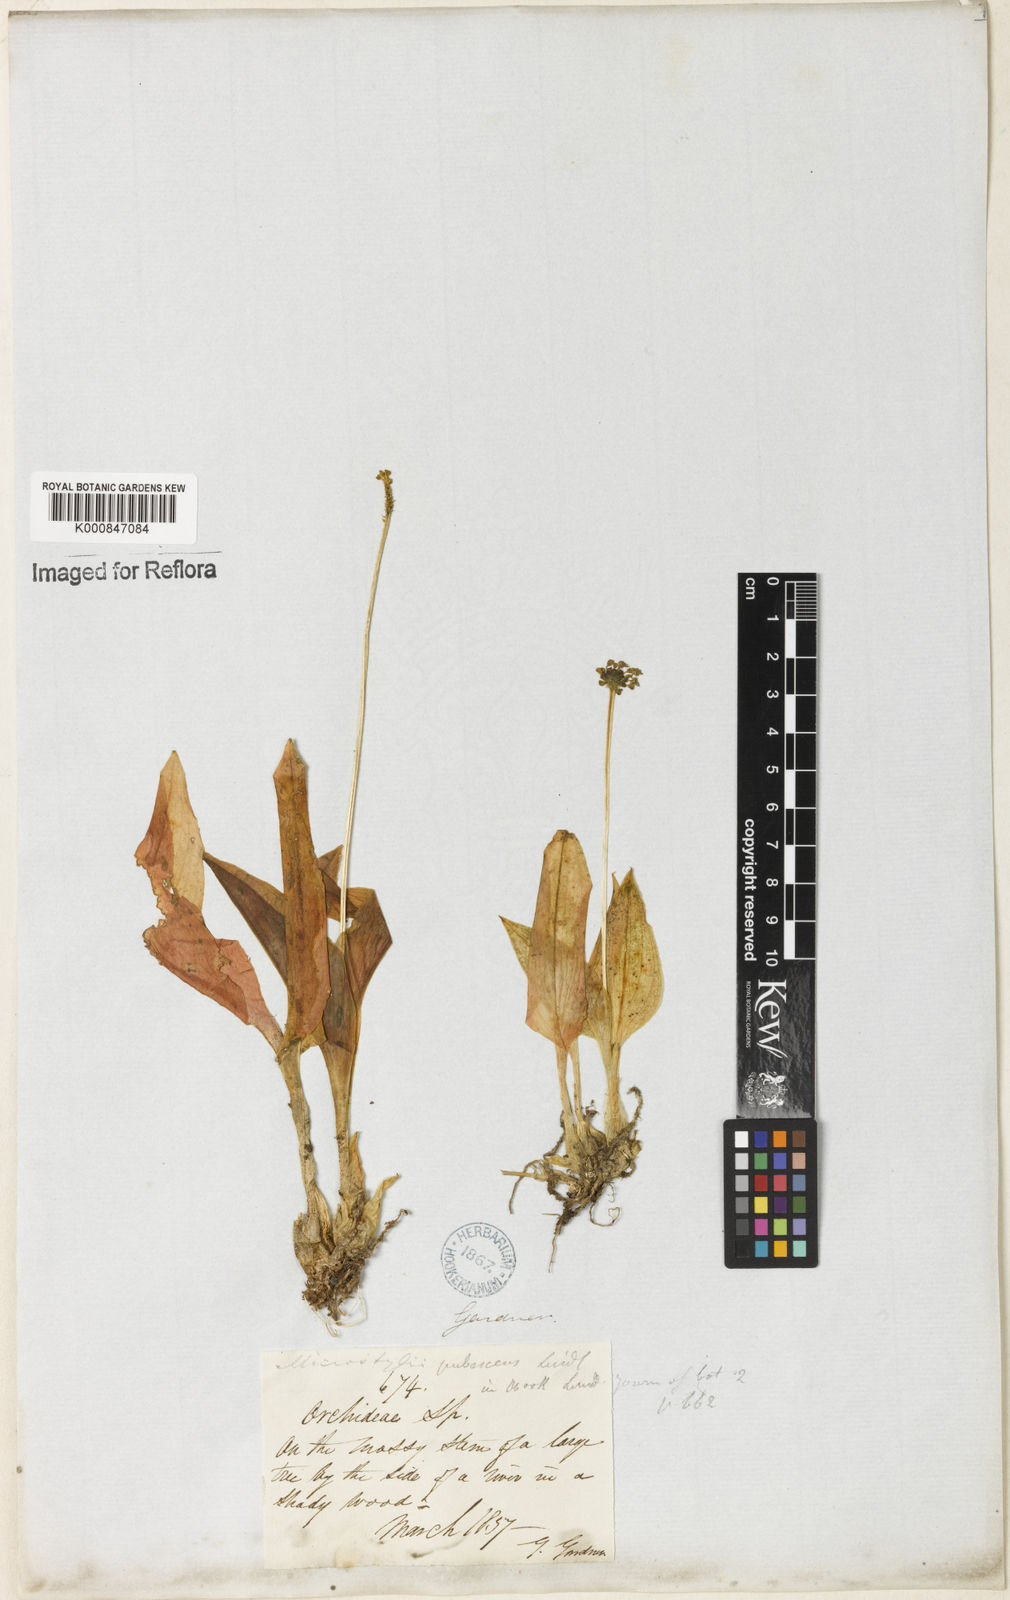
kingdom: Plantae
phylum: Tracheophyta
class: Liliopsida
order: Asparagales
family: Orchidaceae
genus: Liparis
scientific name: Liparis
